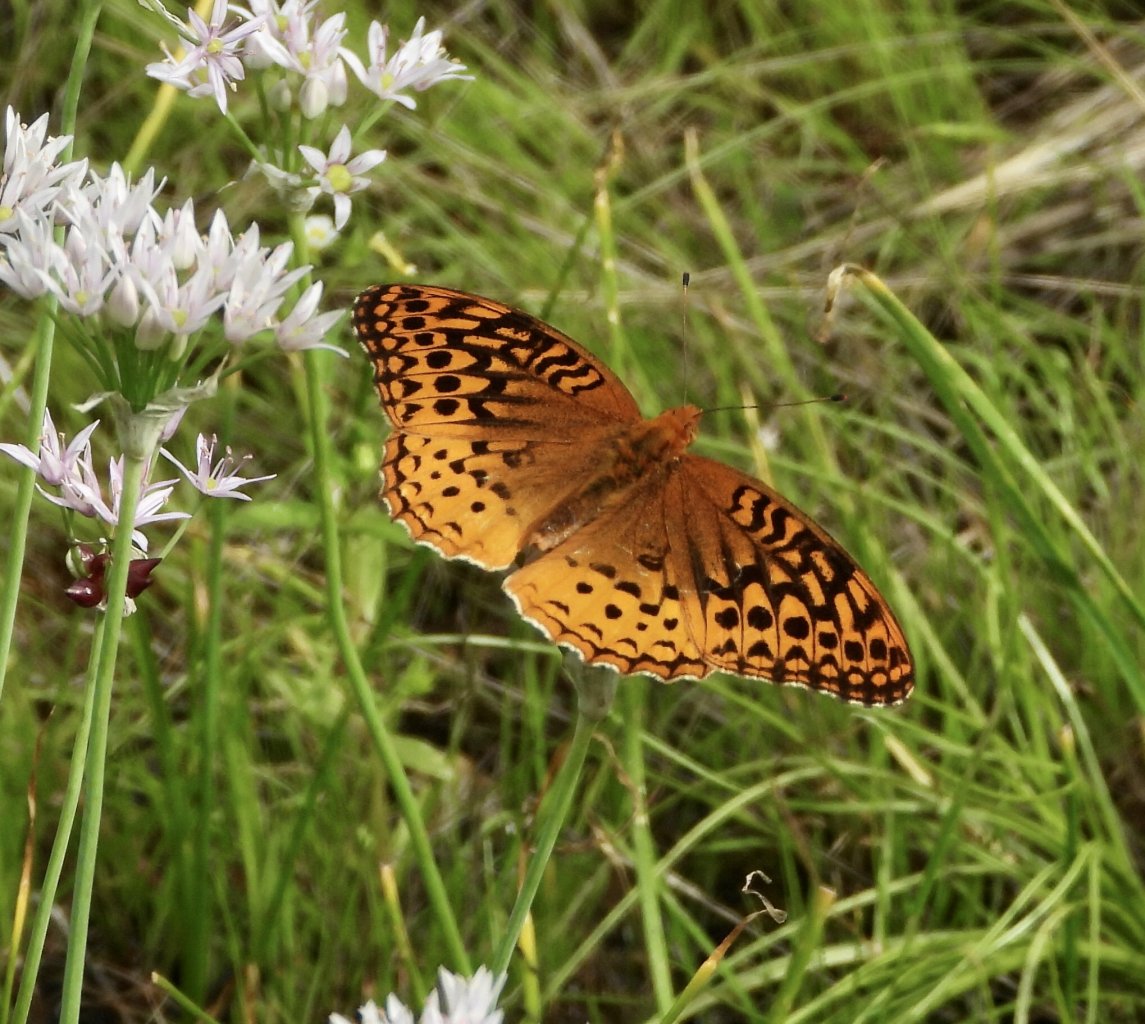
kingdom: Animalia
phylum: Arthropoda
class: Insecta
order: Lepidoptera
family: Nymphalidae
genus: Speyeria
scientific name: Speyeria cybele
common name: Great Spangled Fritillary
